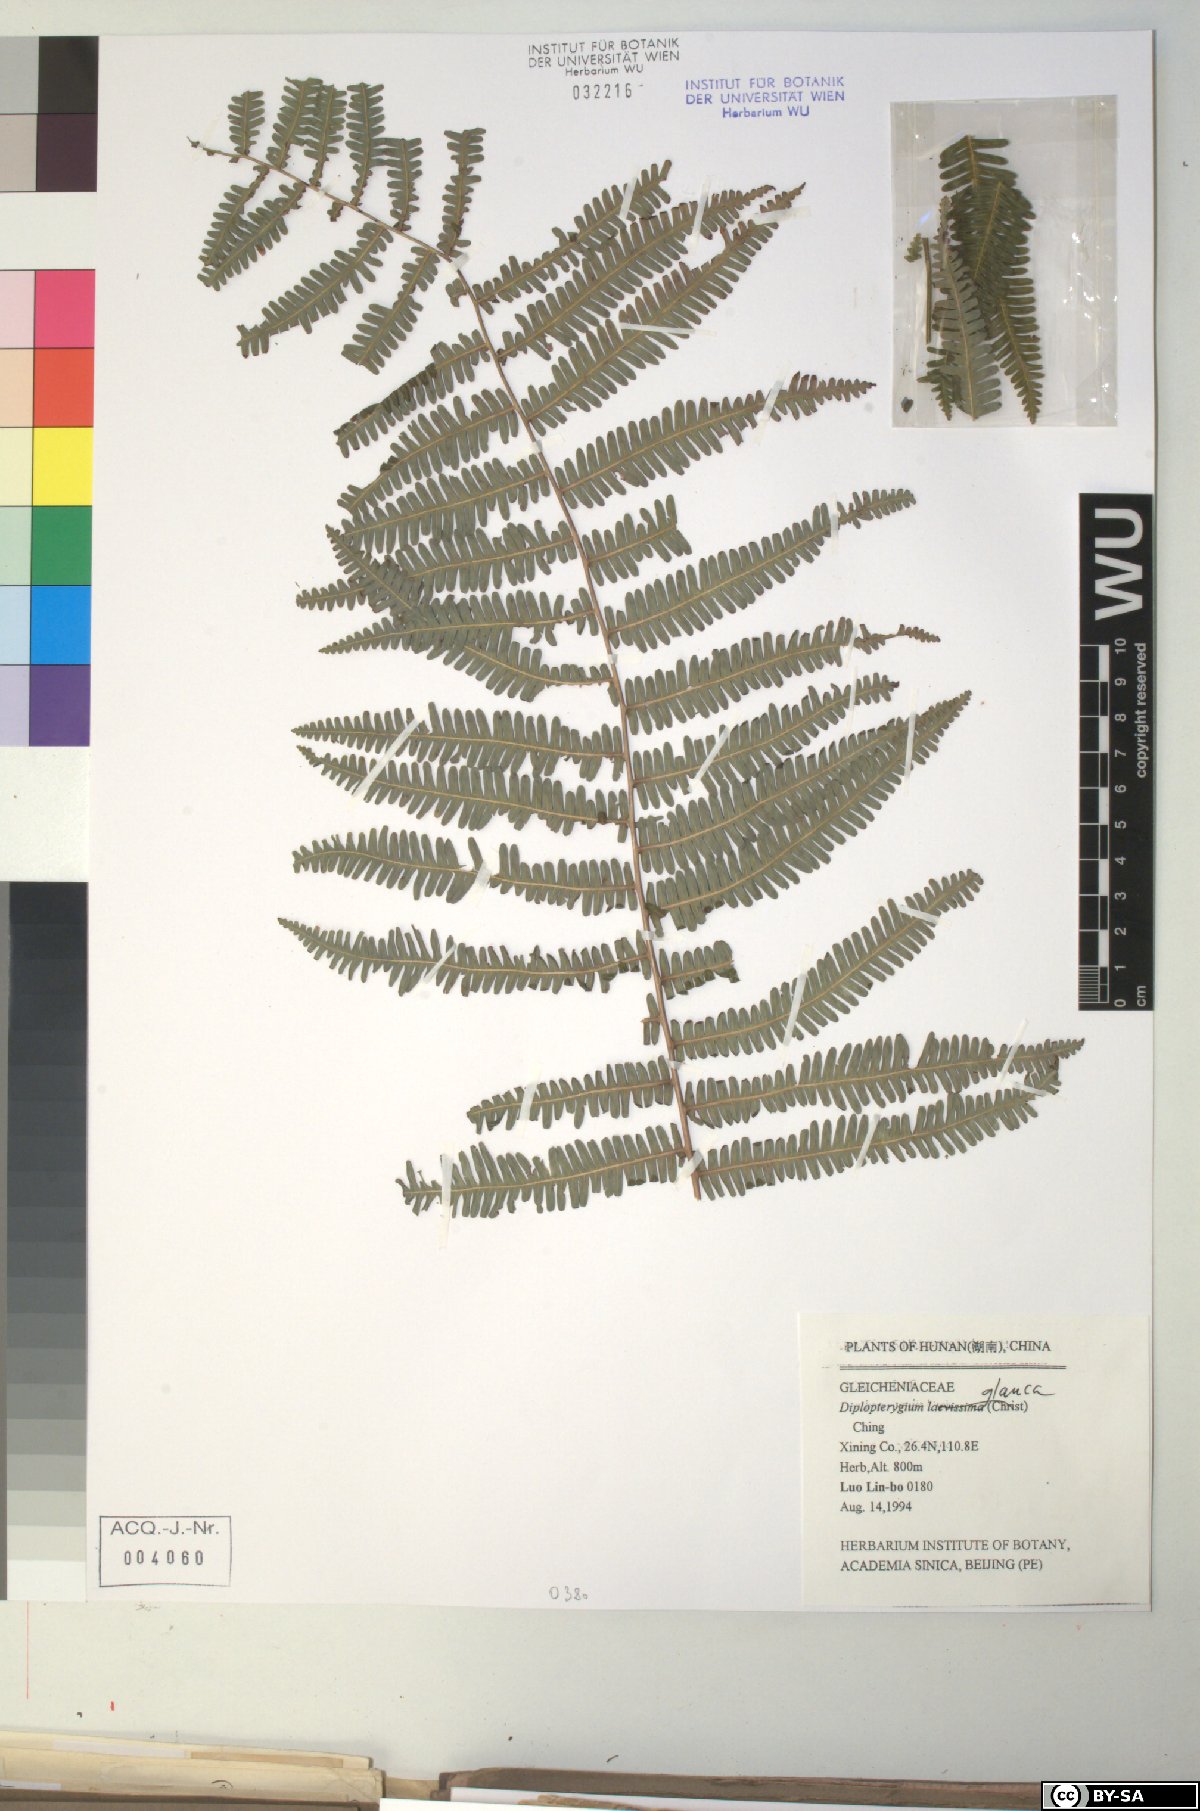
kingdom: Plantae
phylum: Tracheophyta
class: Polypodiopsida
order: Gleicheniales
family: Gleicheniaceae
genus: Diplopterygium
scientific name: Diplopterygium glaucum
